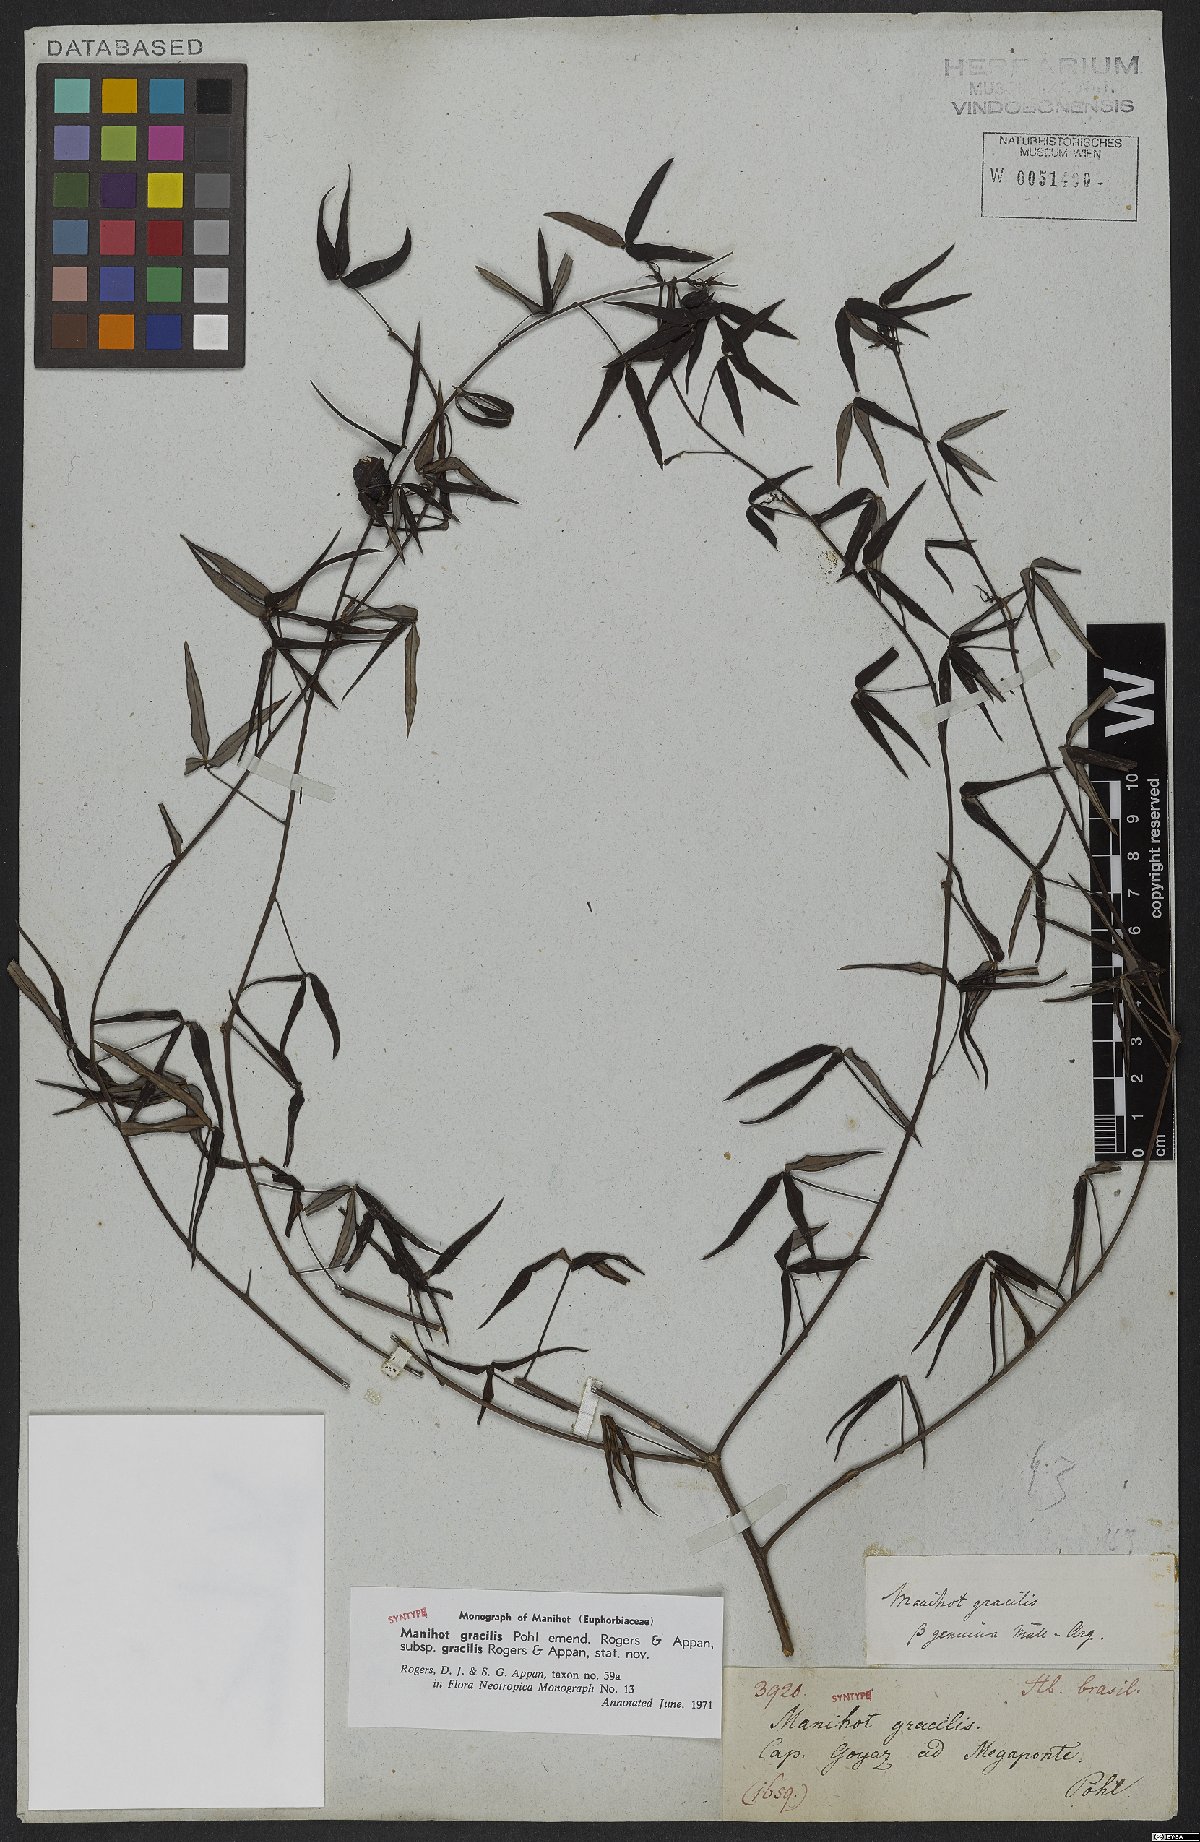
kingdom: Plantae
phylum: Tracheophyta
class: Magnoliopsida
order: Malpighiales
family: Euphorbiaceae
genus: Manihot
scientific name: Manihot gracilis
